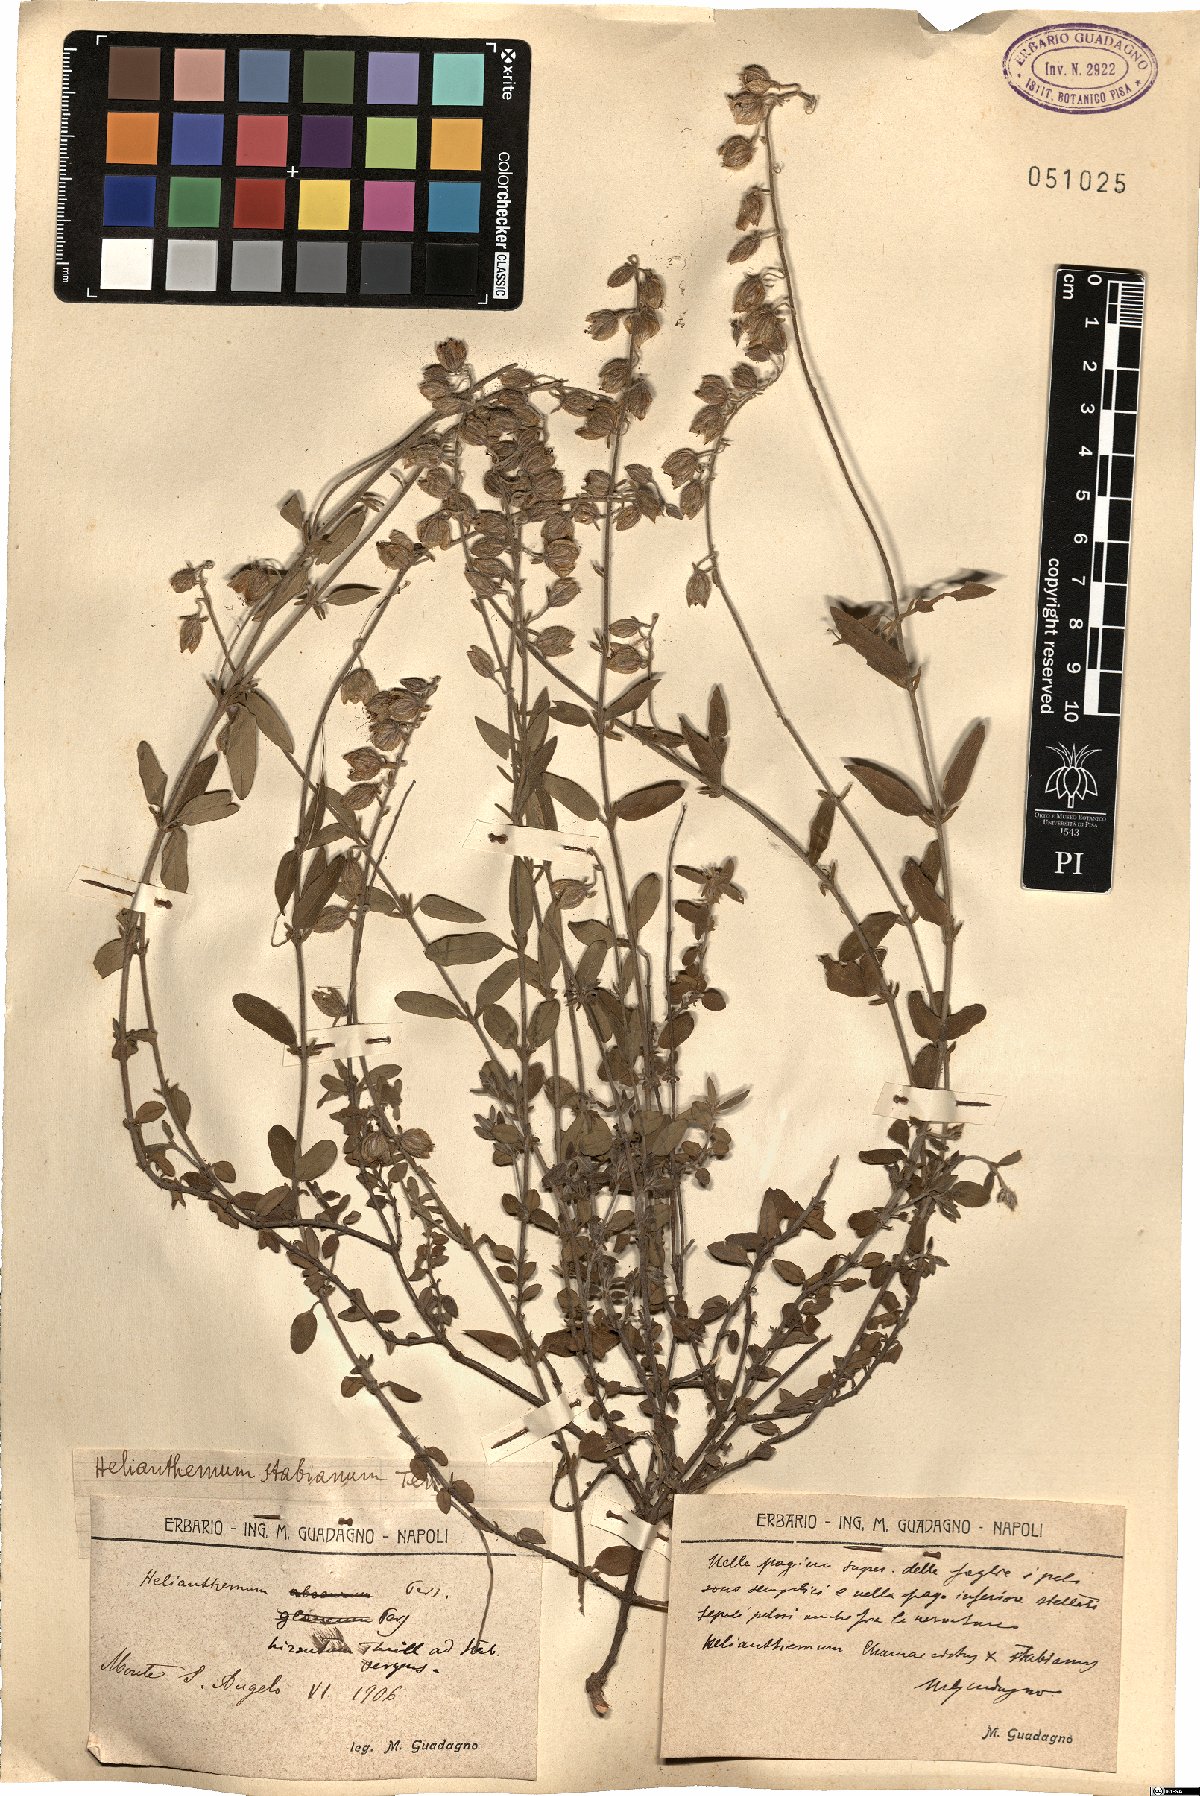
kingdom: Plantae
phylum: Tracheophyta
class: Magnoliopsida
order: Malvales
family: Cistaceae
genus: Helianthemum
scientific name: Helianthemum croceum
